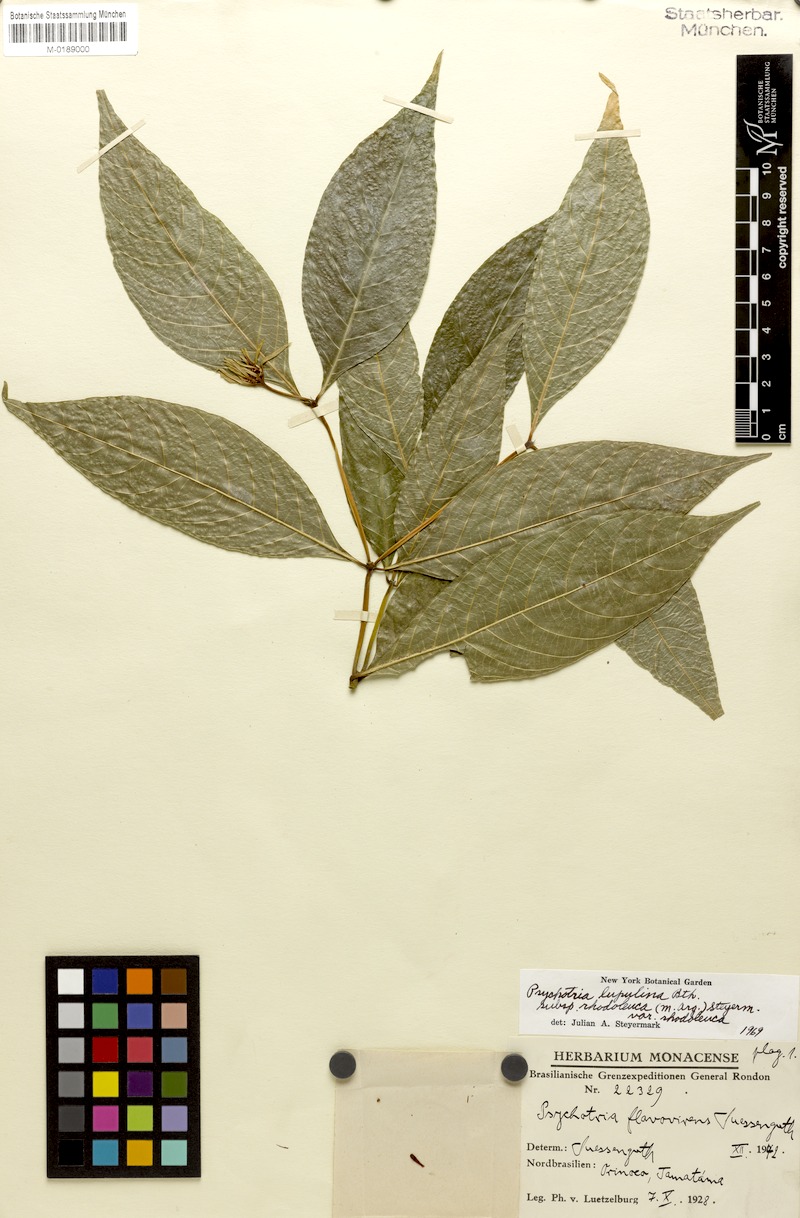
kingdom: Plantae
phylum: Tracheophyta
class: Magnoliopsida
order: Gentianales
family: Rubiaceae
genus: Palicourea
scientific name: Palicourea justiciifolia
